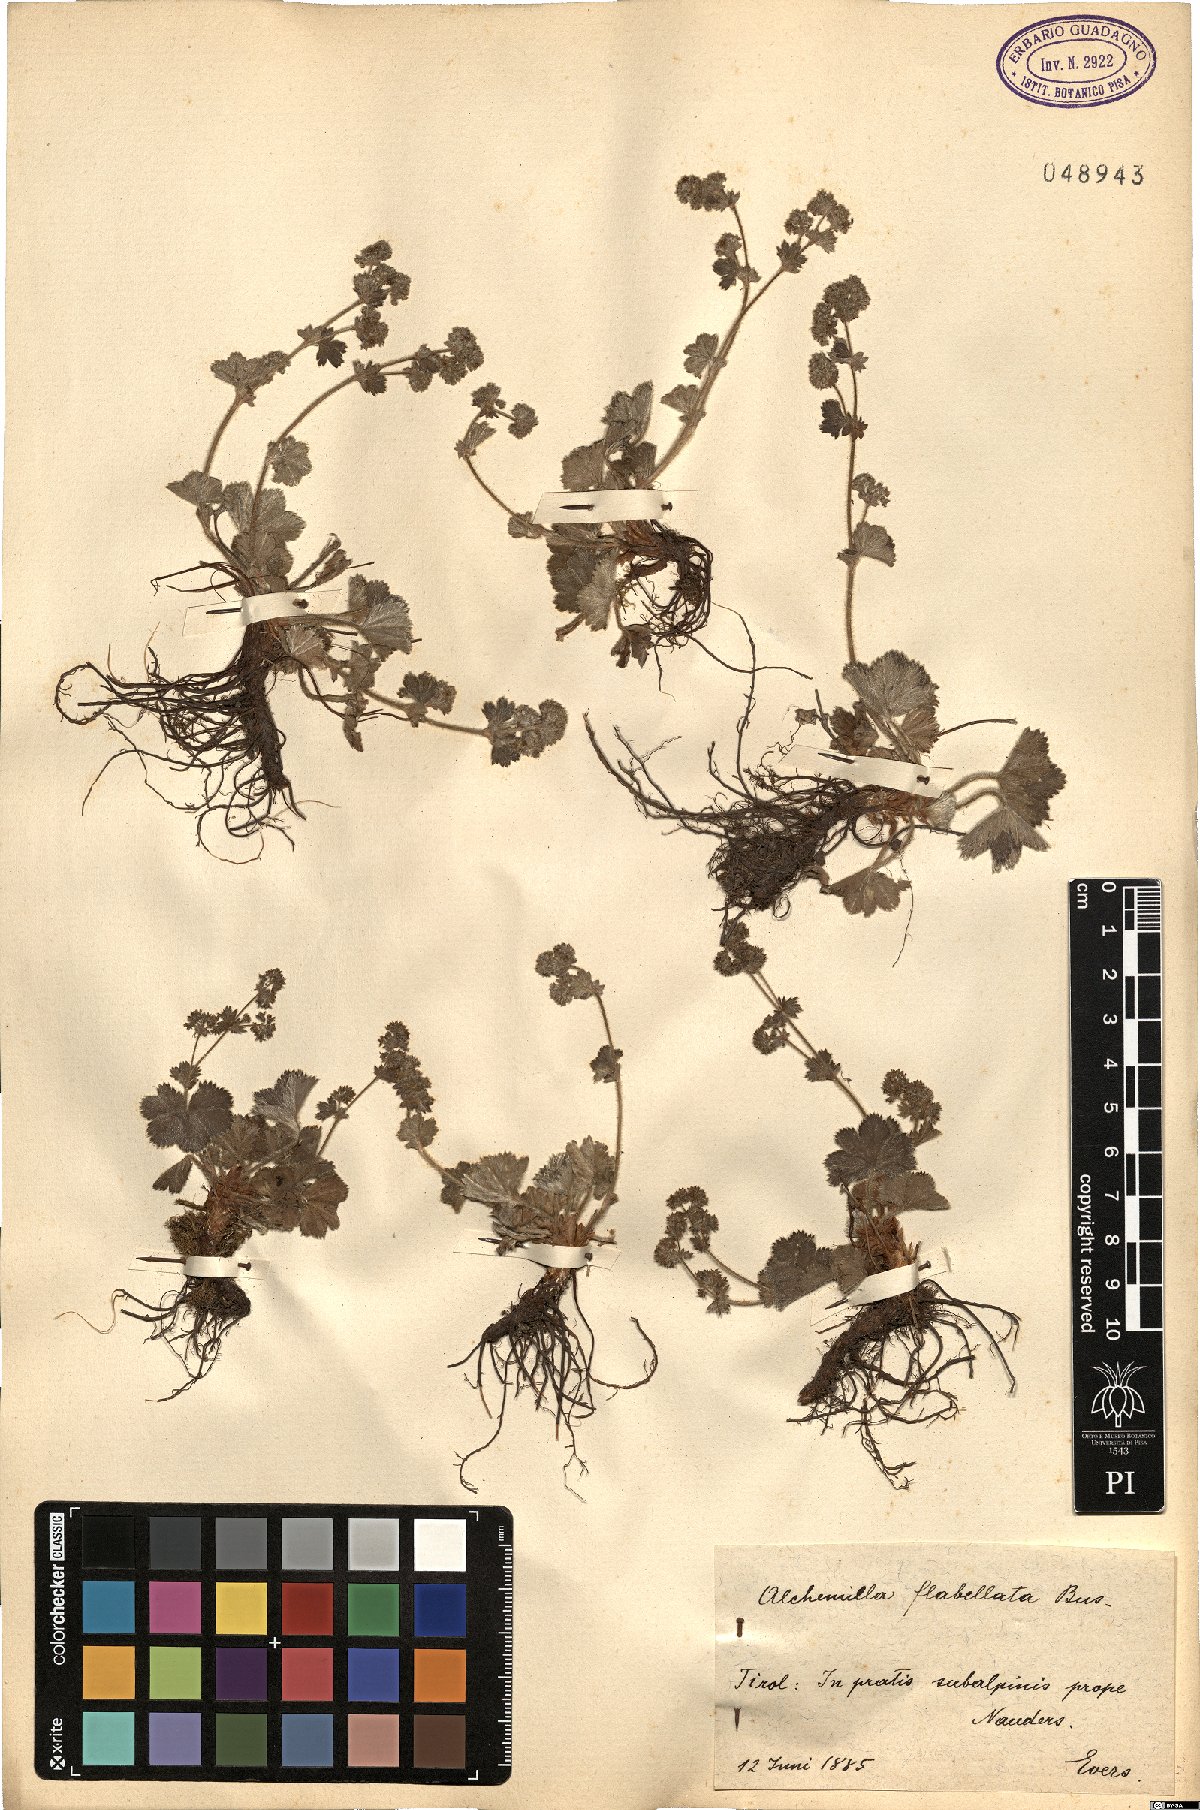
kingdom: Plantae
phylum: Tracheophyta
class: Magnoliopsida
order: Rosales
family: Rosaceae
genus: Alchemilla
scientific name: Alchemilla flabellata
